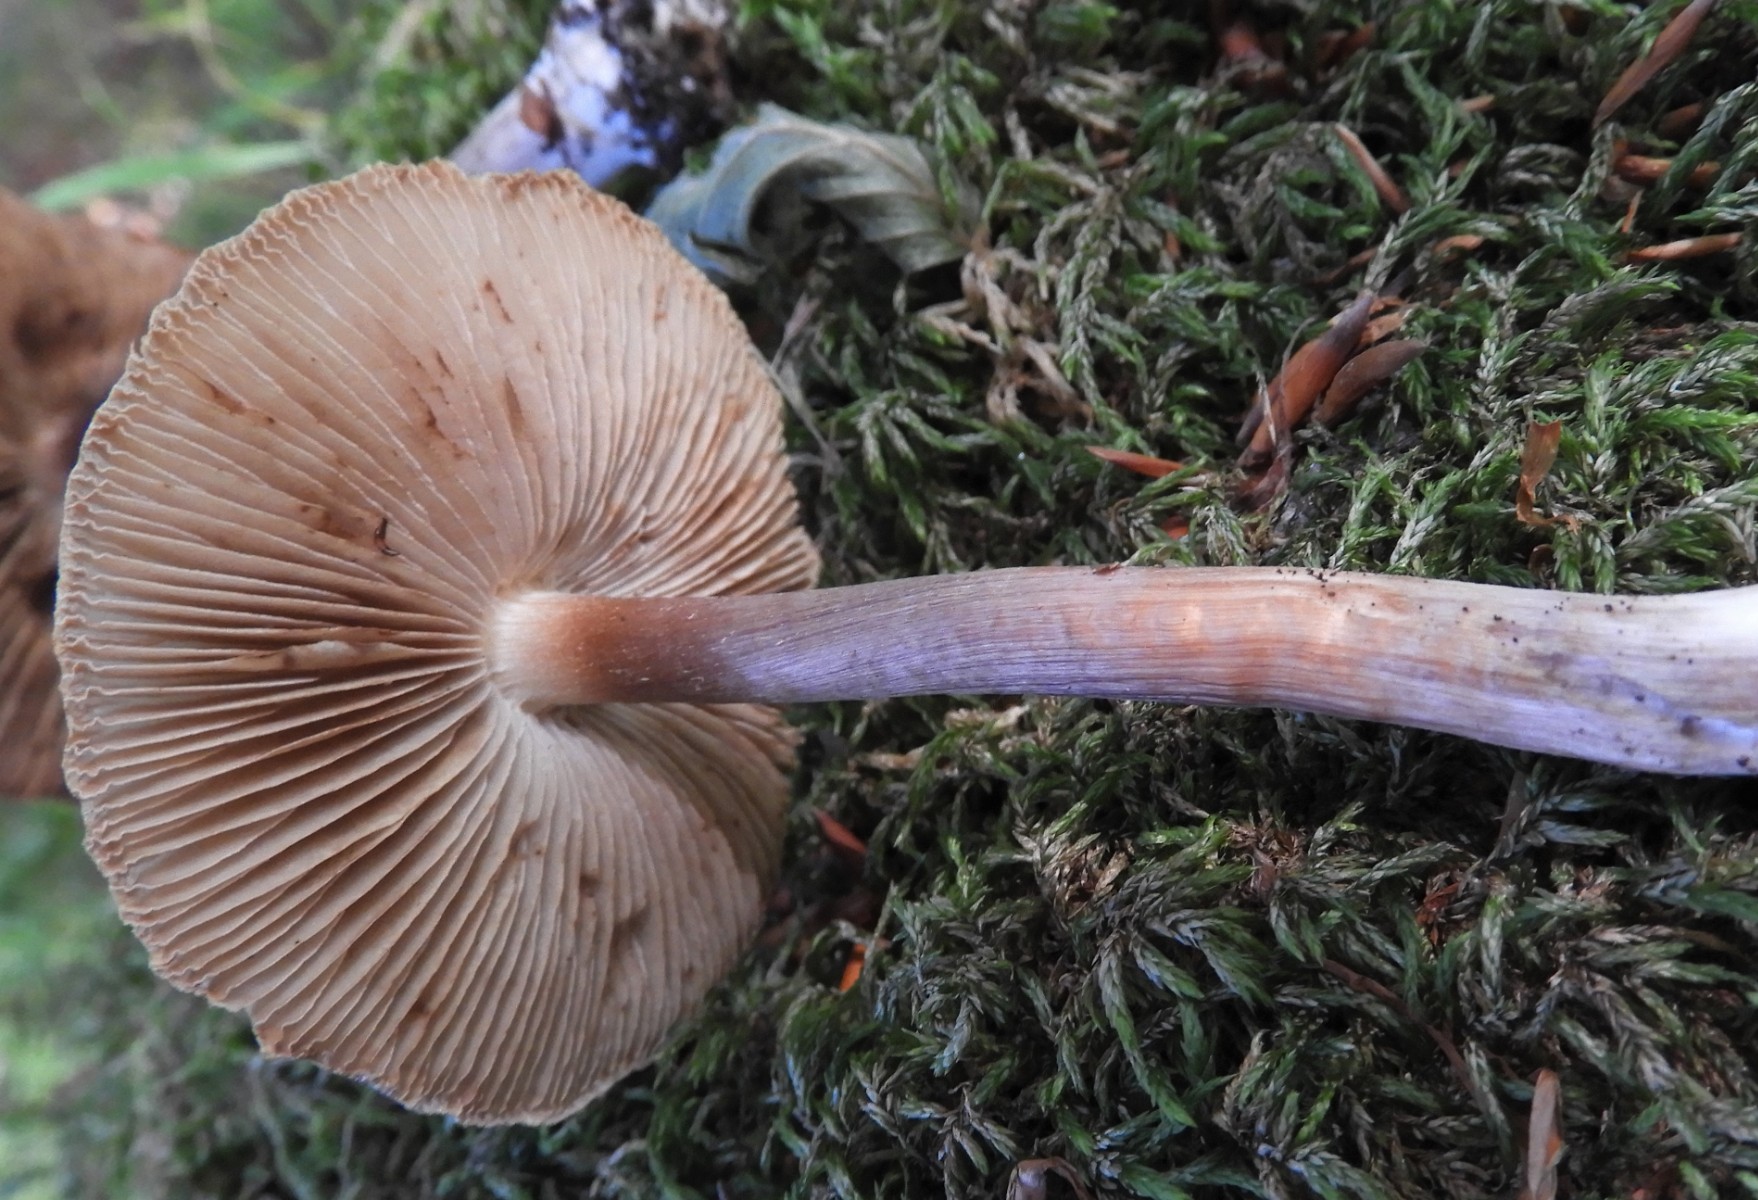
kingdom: Fungi
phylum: Basidiomycota
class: Agaricomycetes
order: Agaricales
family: Tricholomataceae
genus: Megacollybia
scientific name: Megacollybia platyphylla
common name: bredbladet væbnerhat
